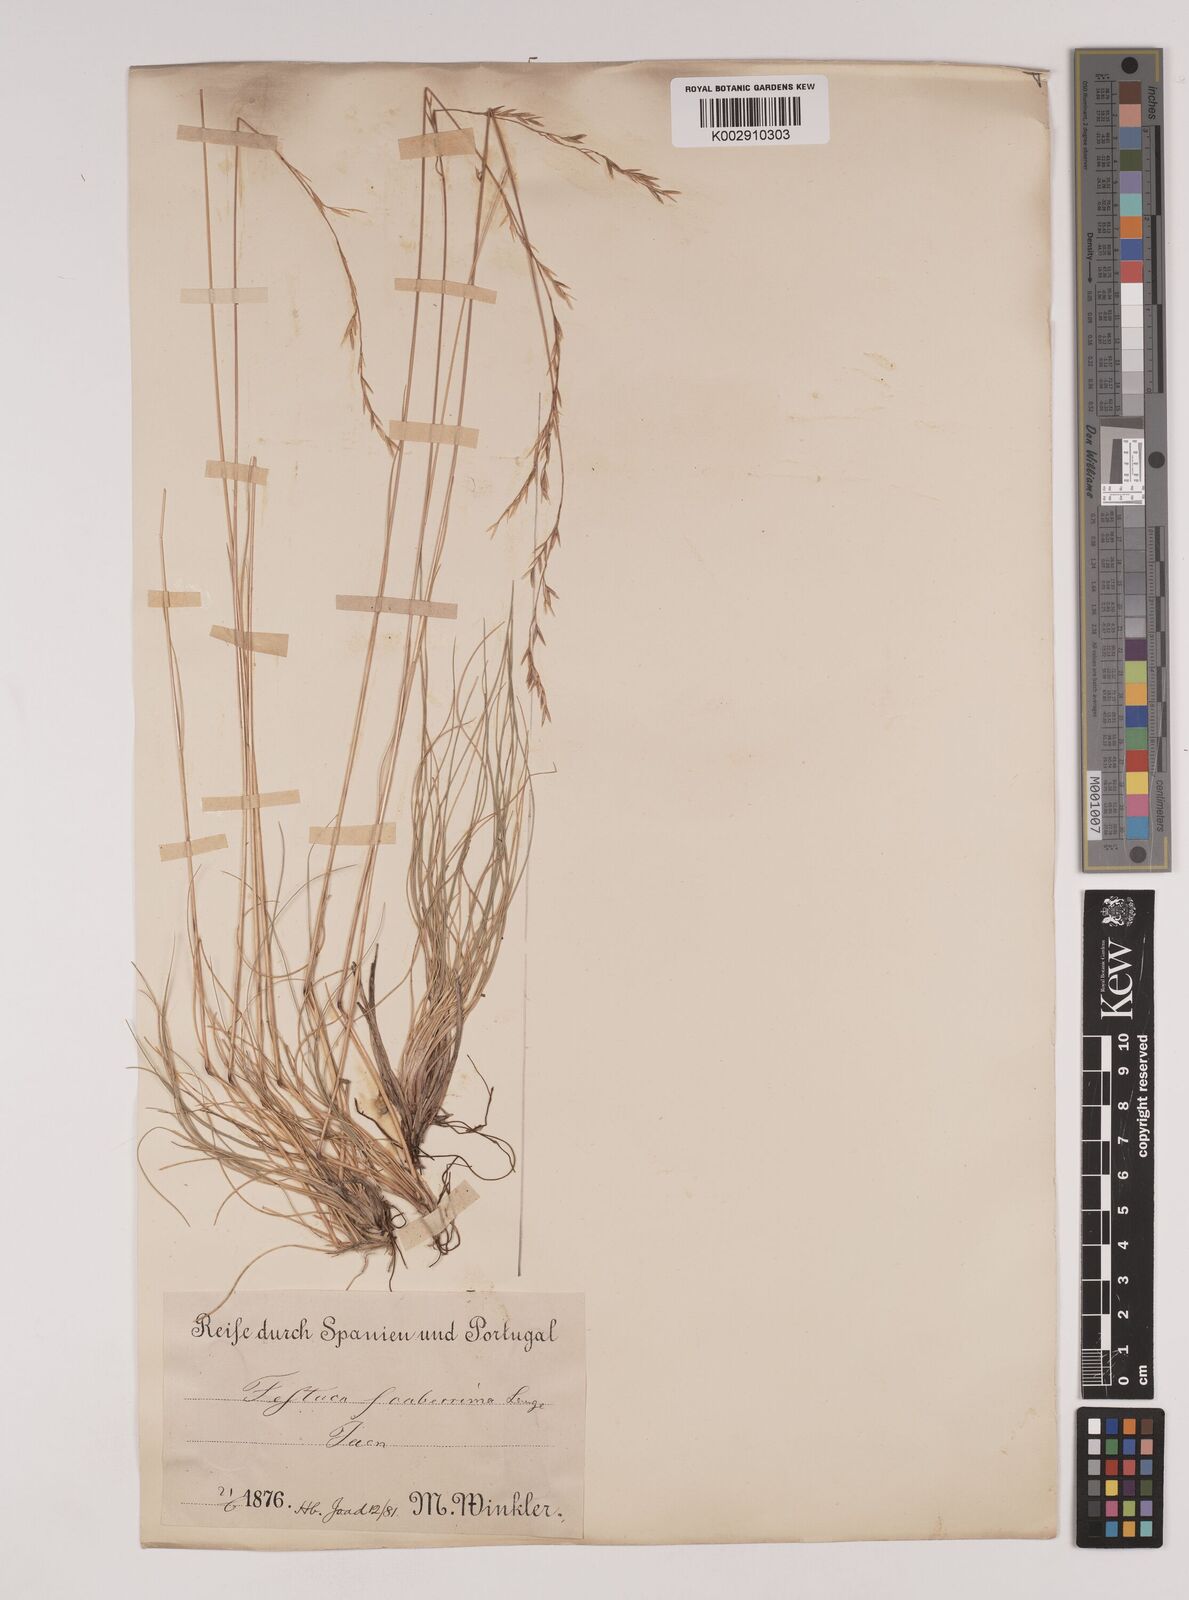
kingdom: Plantae
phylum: Tracheophyta
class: Liliopsida
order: Poales
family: Poaceae
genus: Festuca
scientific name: Festuca capillifolia
